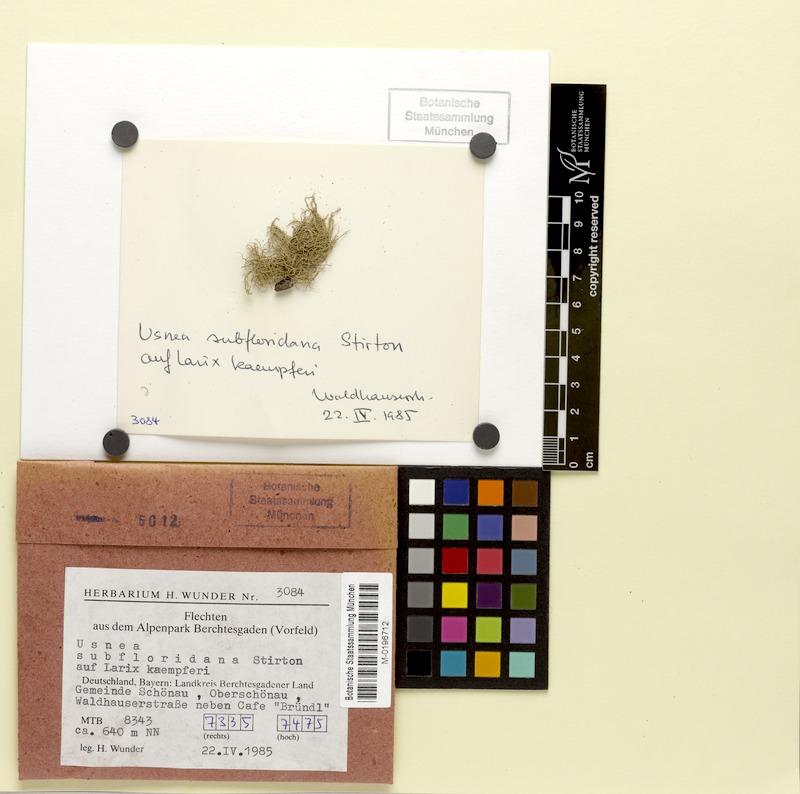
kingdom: Fungi
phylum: Ascomycota
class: Lecanoromycetes
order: Lecanorales
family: Parmeliaceae
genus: Usnea
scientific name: Usnea subfloridana
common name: Boreal beard lichen
